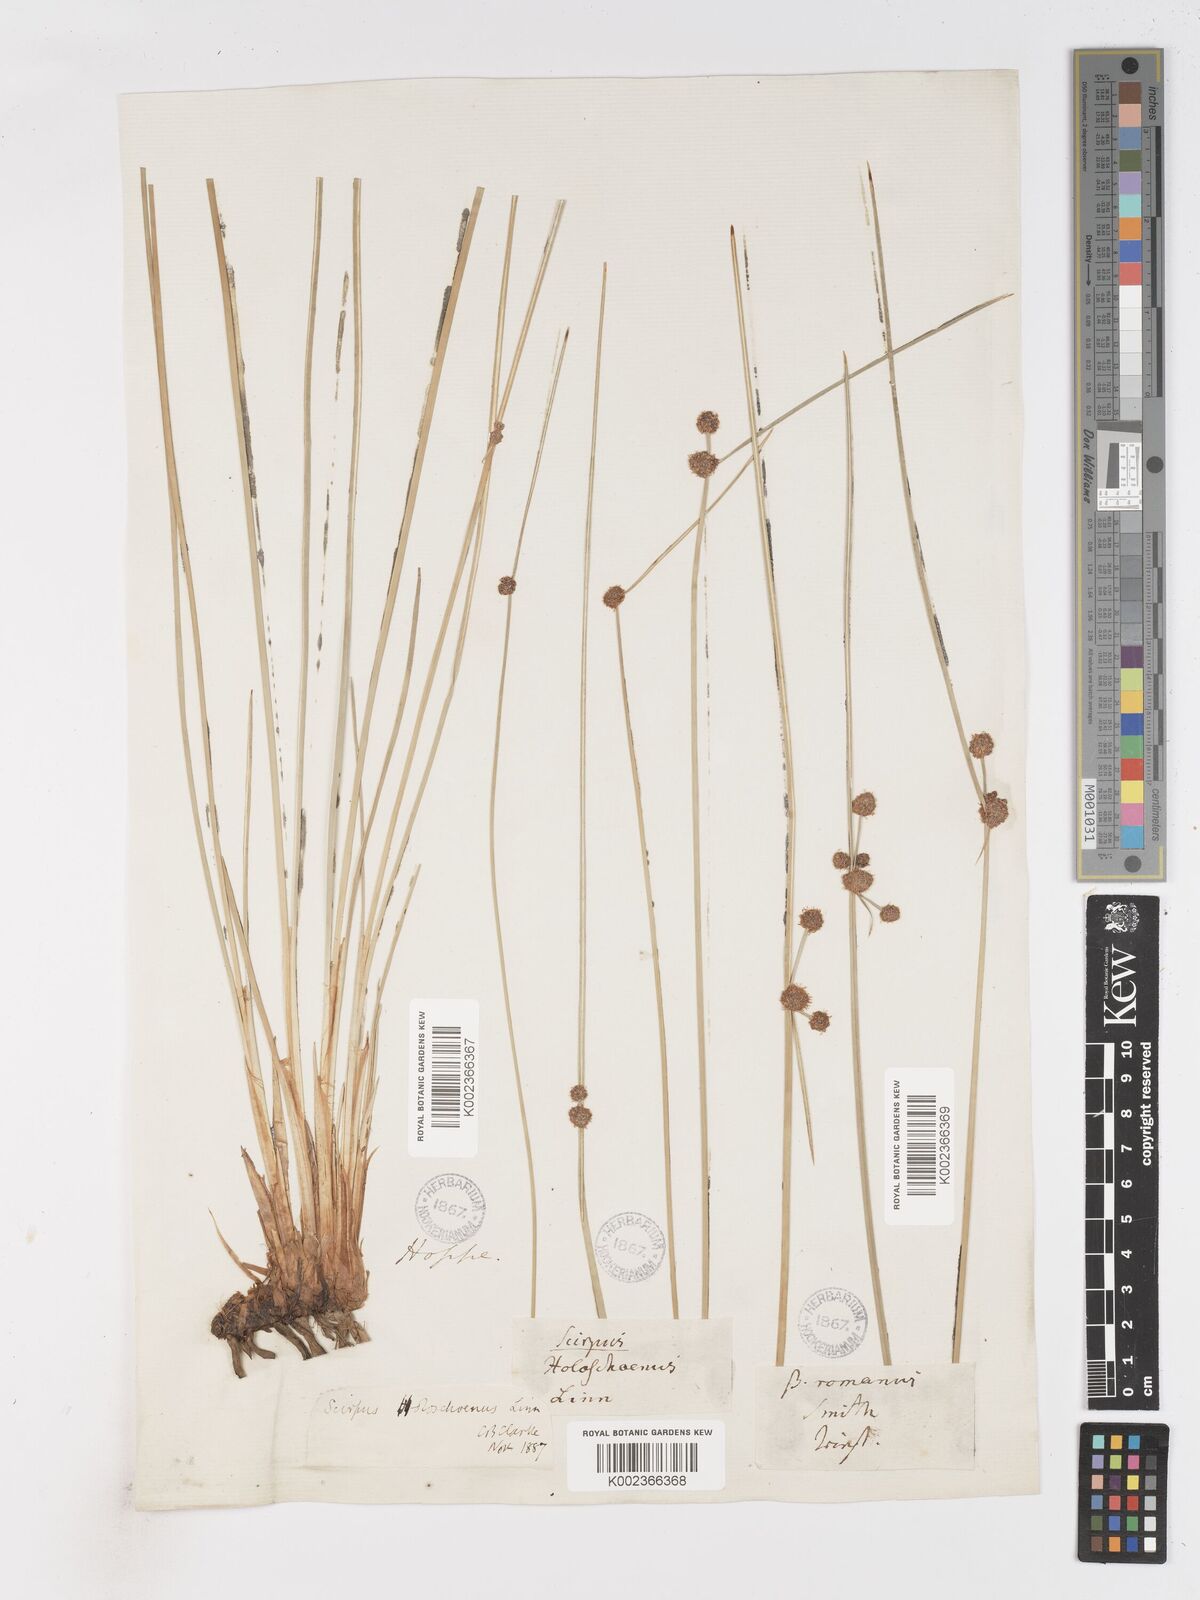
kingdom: Plantae
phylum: Tracheophyta
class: Liliopsida
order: Poales
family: Cyperaceae
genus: Scirpoides
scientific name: Scirpoides holoschoenus
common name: Round-headed club-rush
